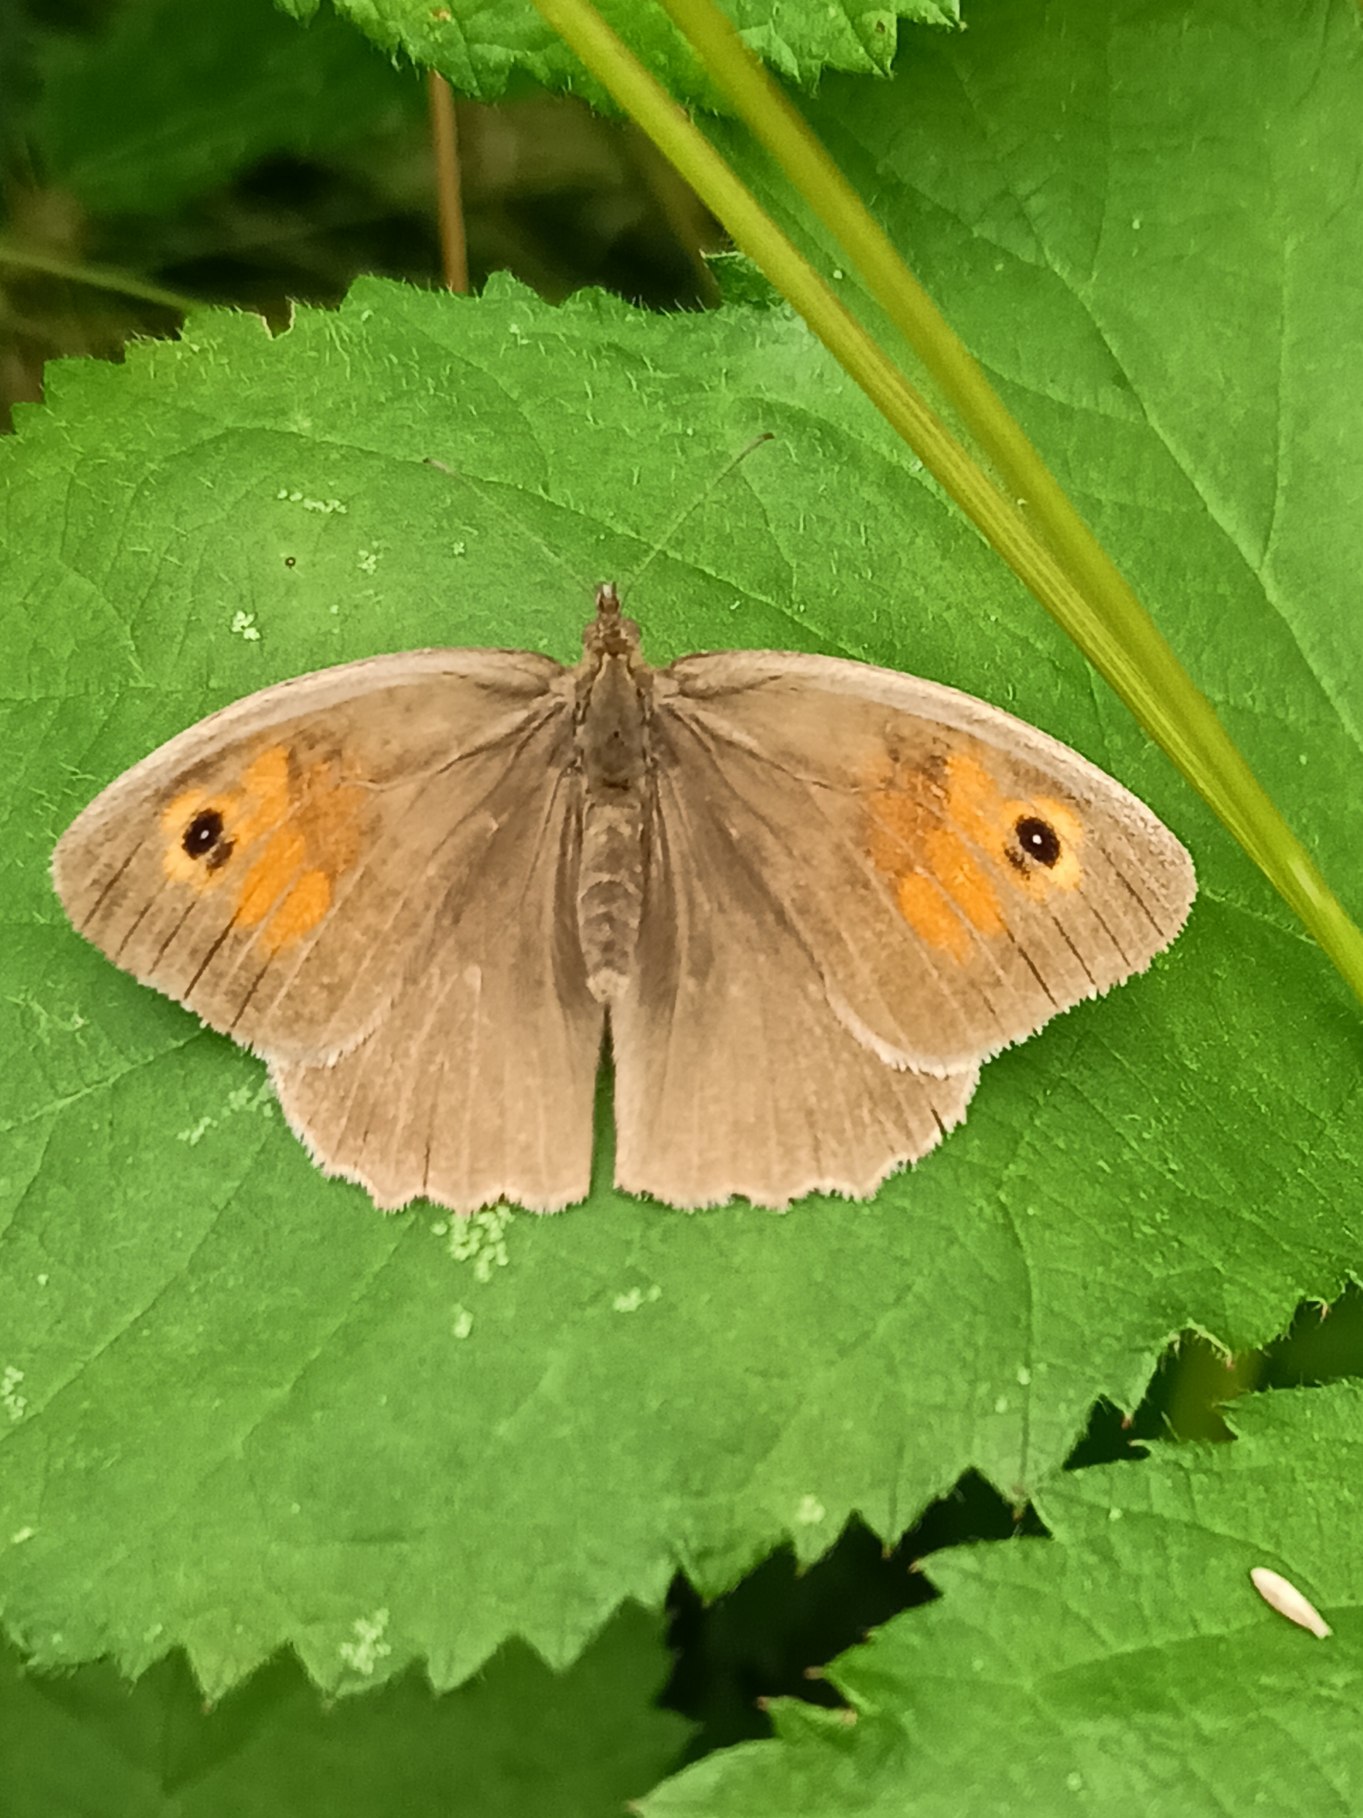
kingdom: Animalia
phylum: Arthropoda
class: Insecta
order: Lepidoptera
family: Nymphalidae
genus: Maniola
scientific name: Maniola jurtina
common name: Græsrandøje
